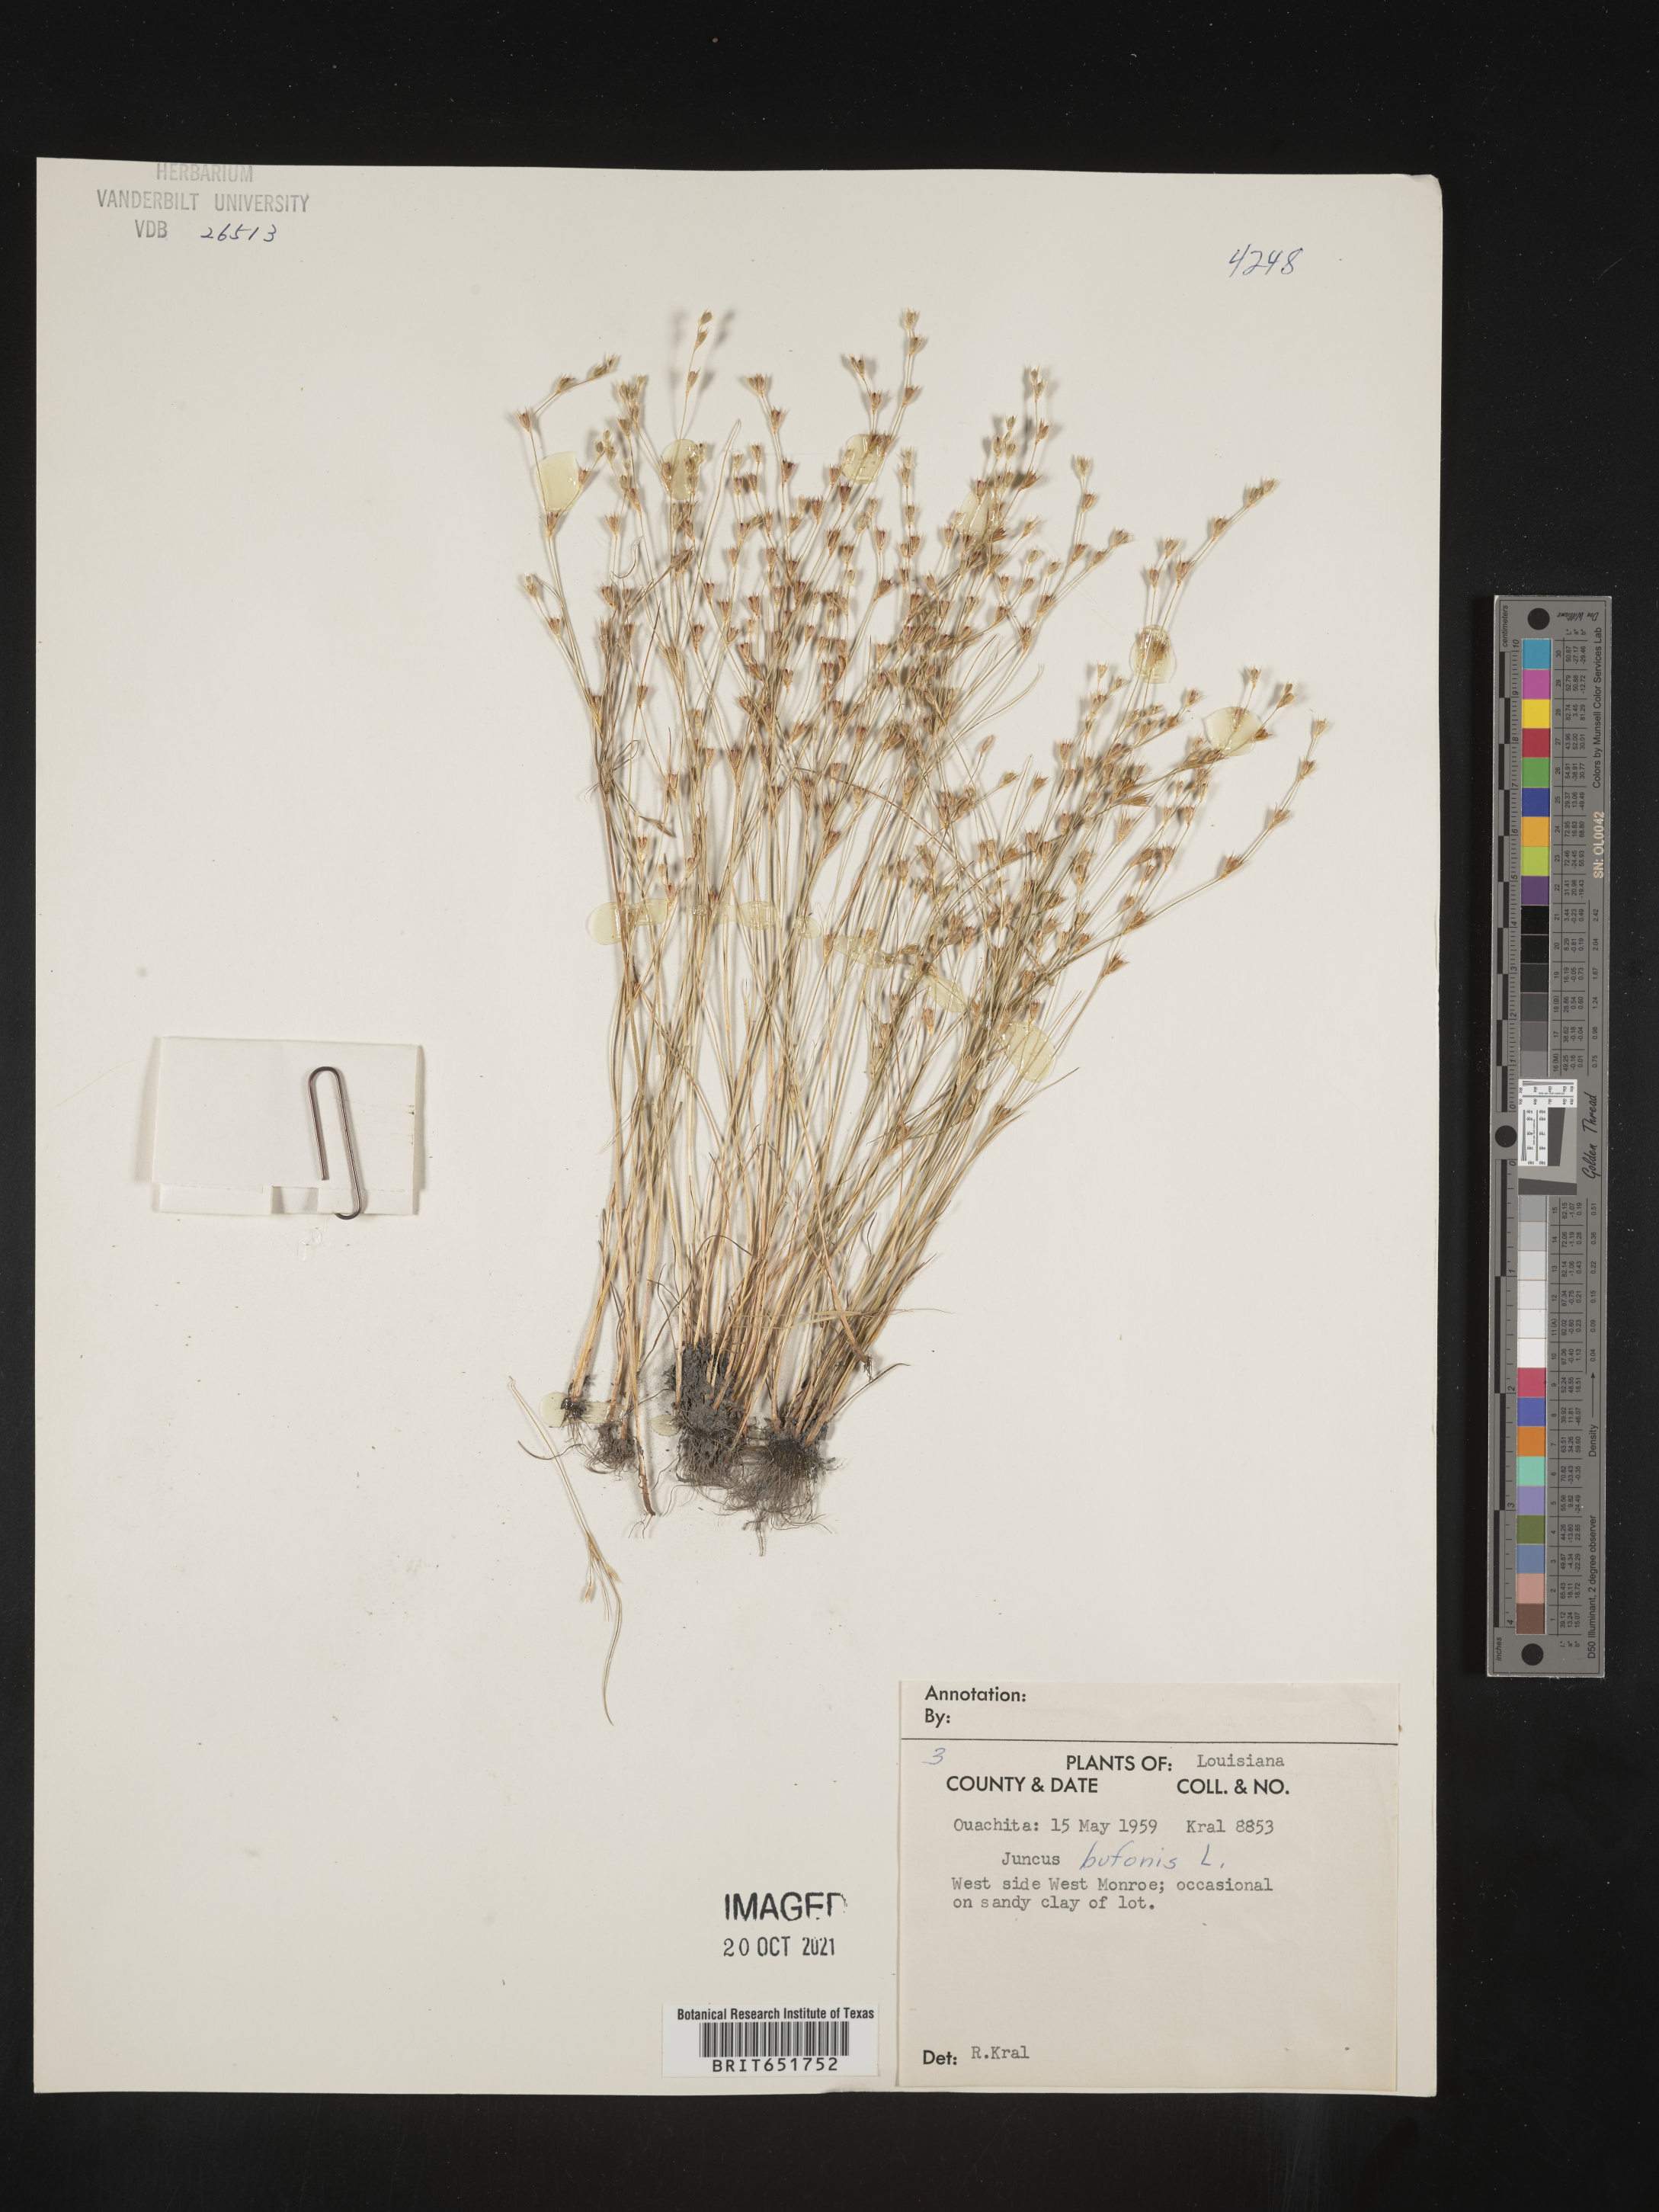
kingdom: Plantae
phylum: Tracheophyta
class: Liliopsida
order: Poales
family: Juncaceae
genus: Juncus
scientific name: Juncus bufonius
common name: Toad rush
